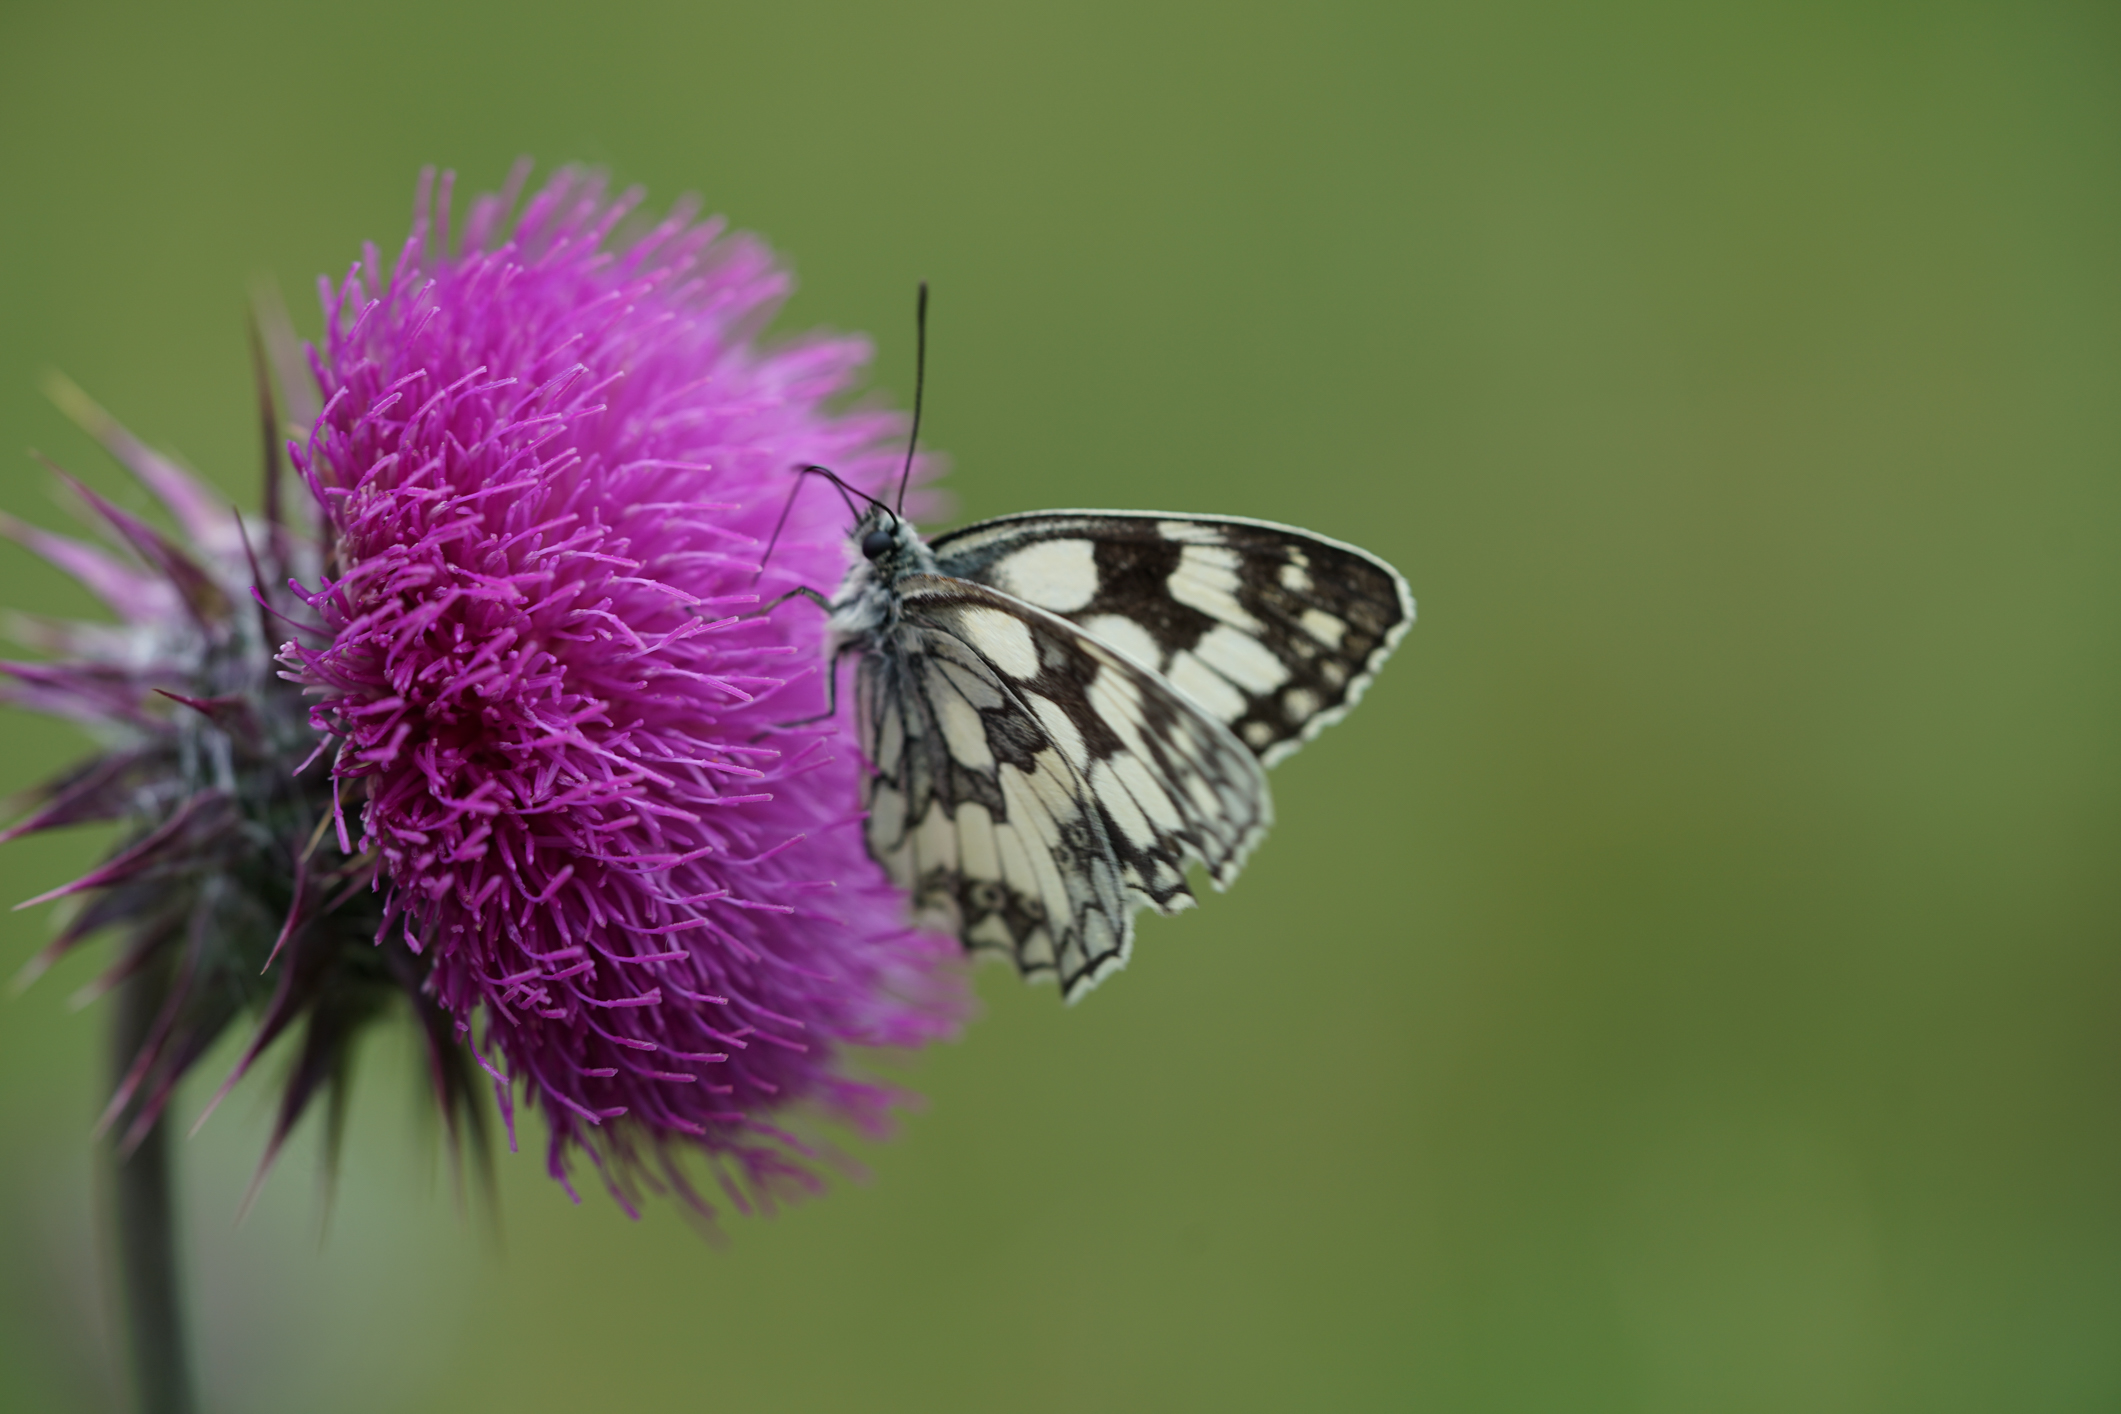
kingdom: Animalia
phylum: Arthropoda
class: Insecta
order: Lepidoptera
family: Nymphalidae
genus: Melanargia
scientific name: Melanargia galathea
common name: Marbled white
